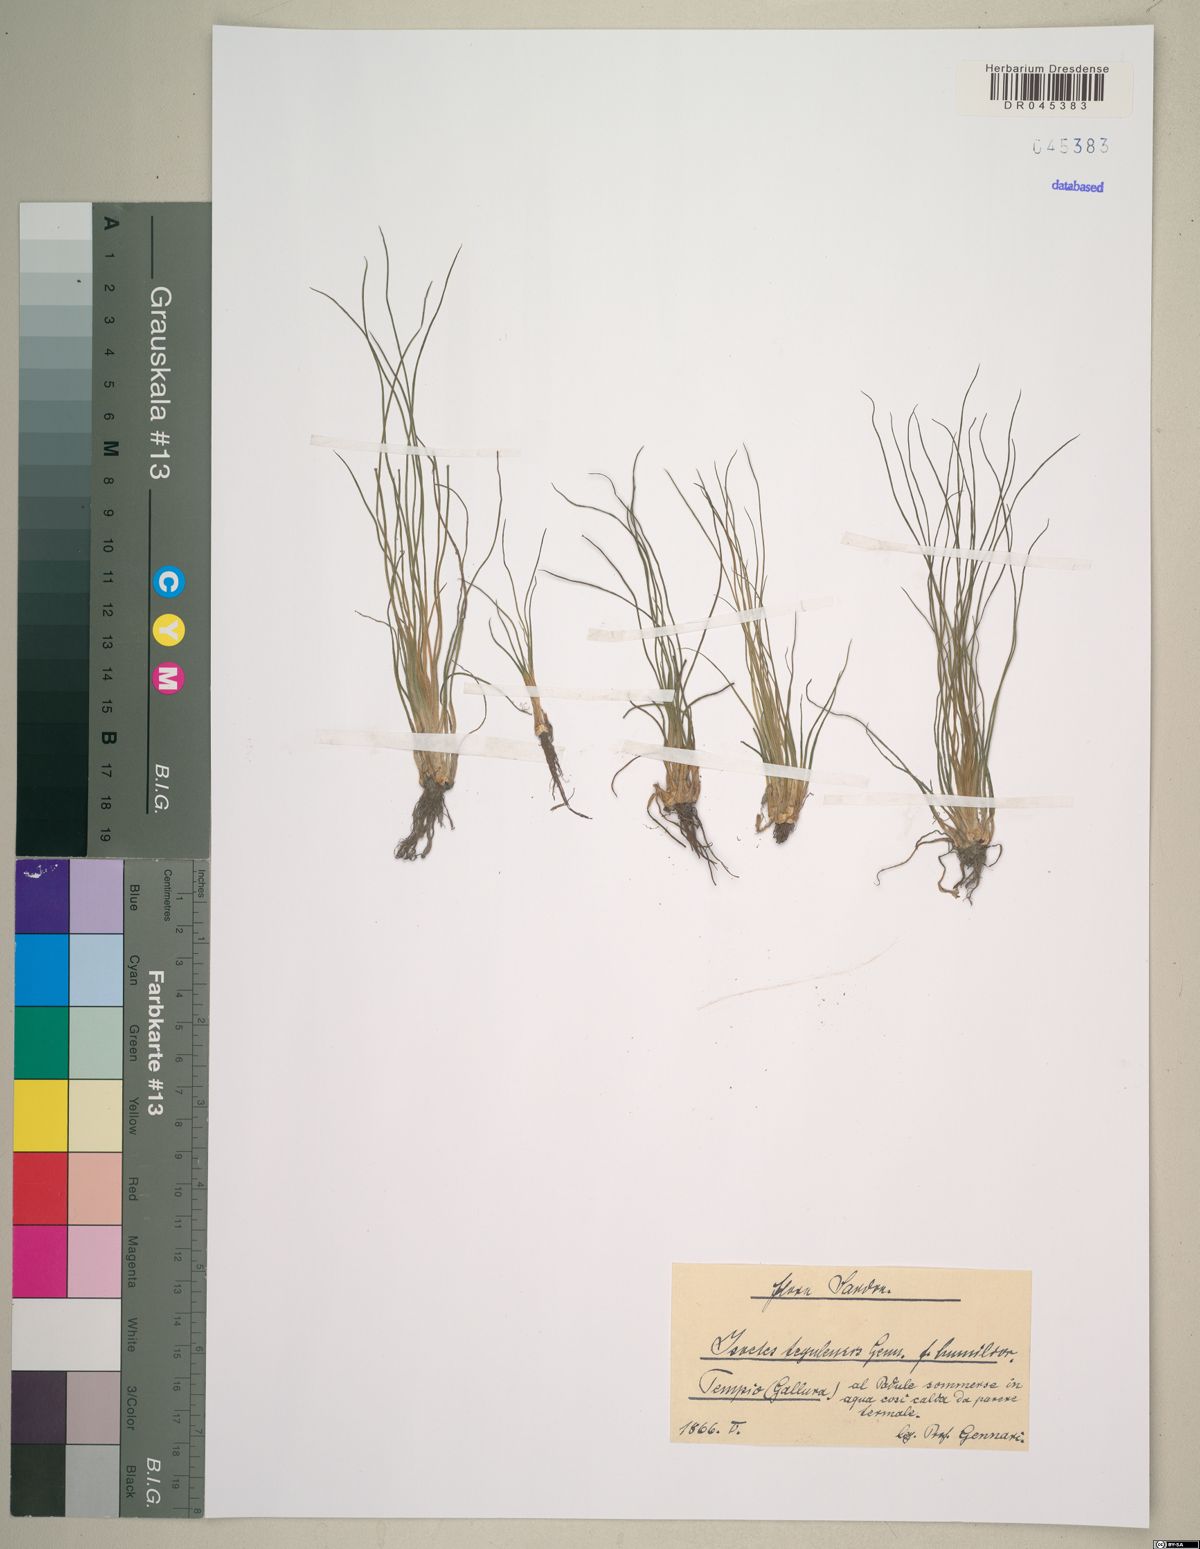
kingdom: Plantae
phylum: Tracheophyta
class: Lycopodiopsida
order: Isoetales
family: Isoetaceae
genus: Isoetes
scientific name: Isoetes tiguliana
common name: Sardinian quillwort
